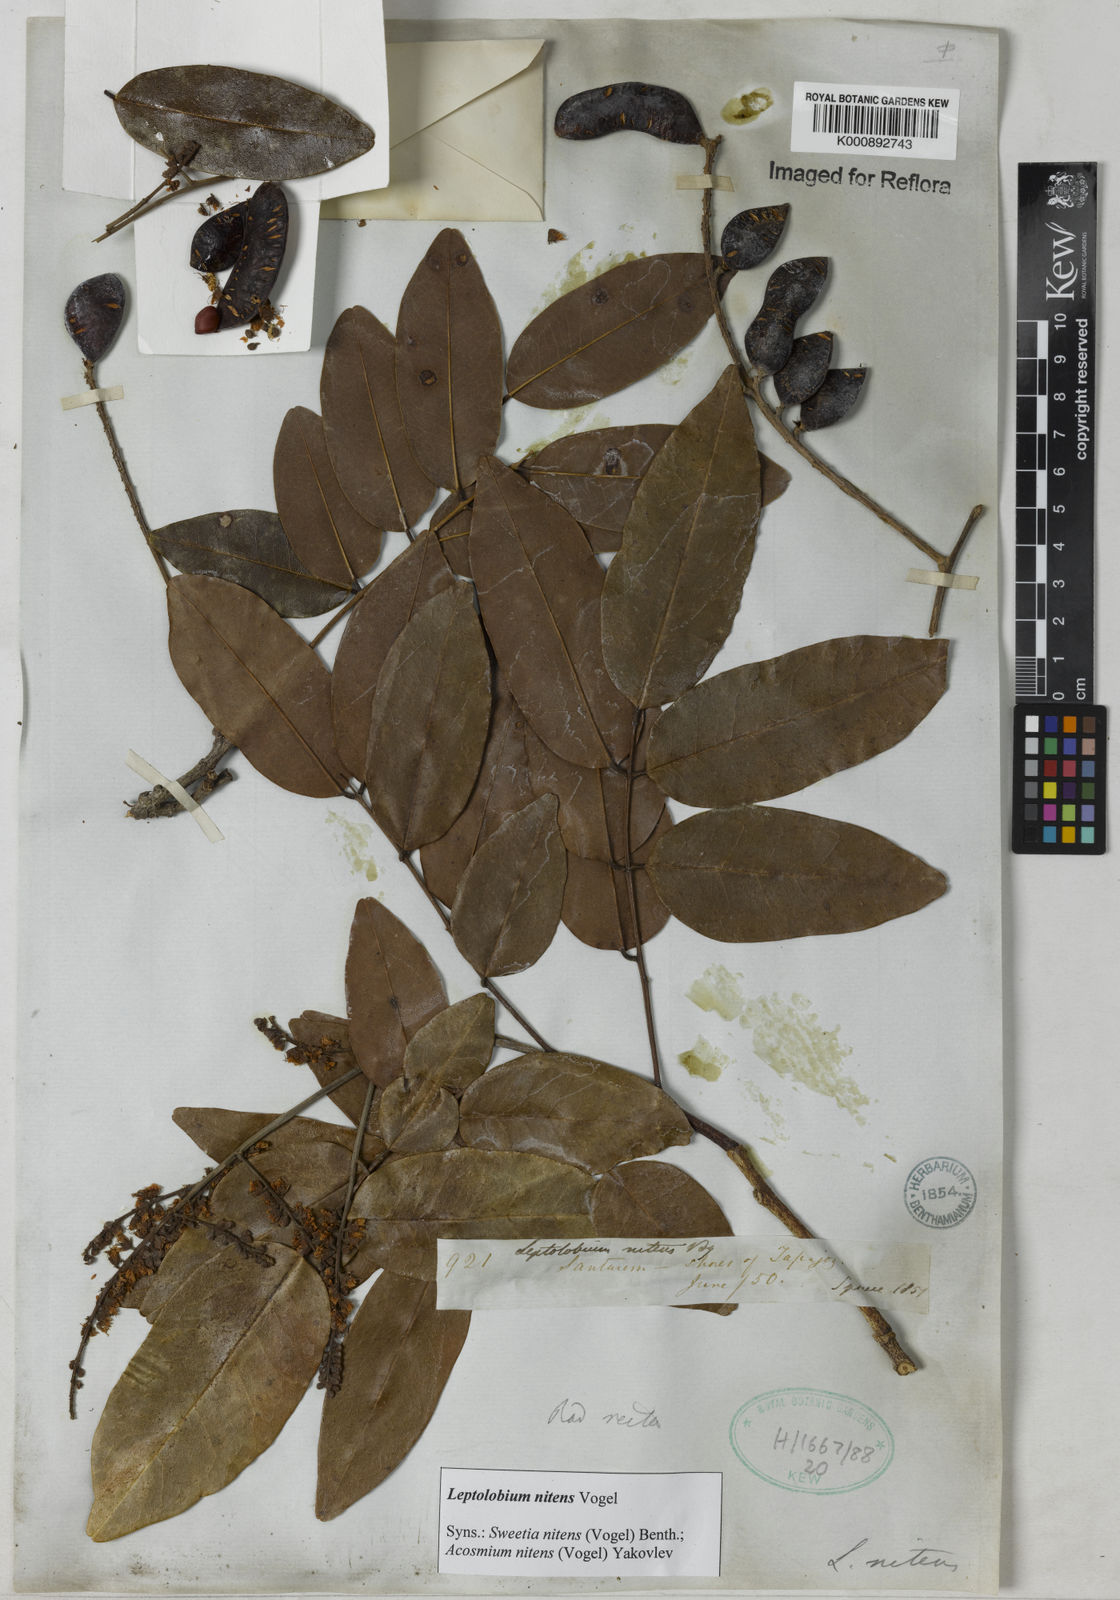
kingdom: Plantae
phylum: Tracheophyta
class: Magnoliopsida
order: Fabales
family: Fabaceae
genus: Leptolobium
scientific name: Leptolobium nitens
